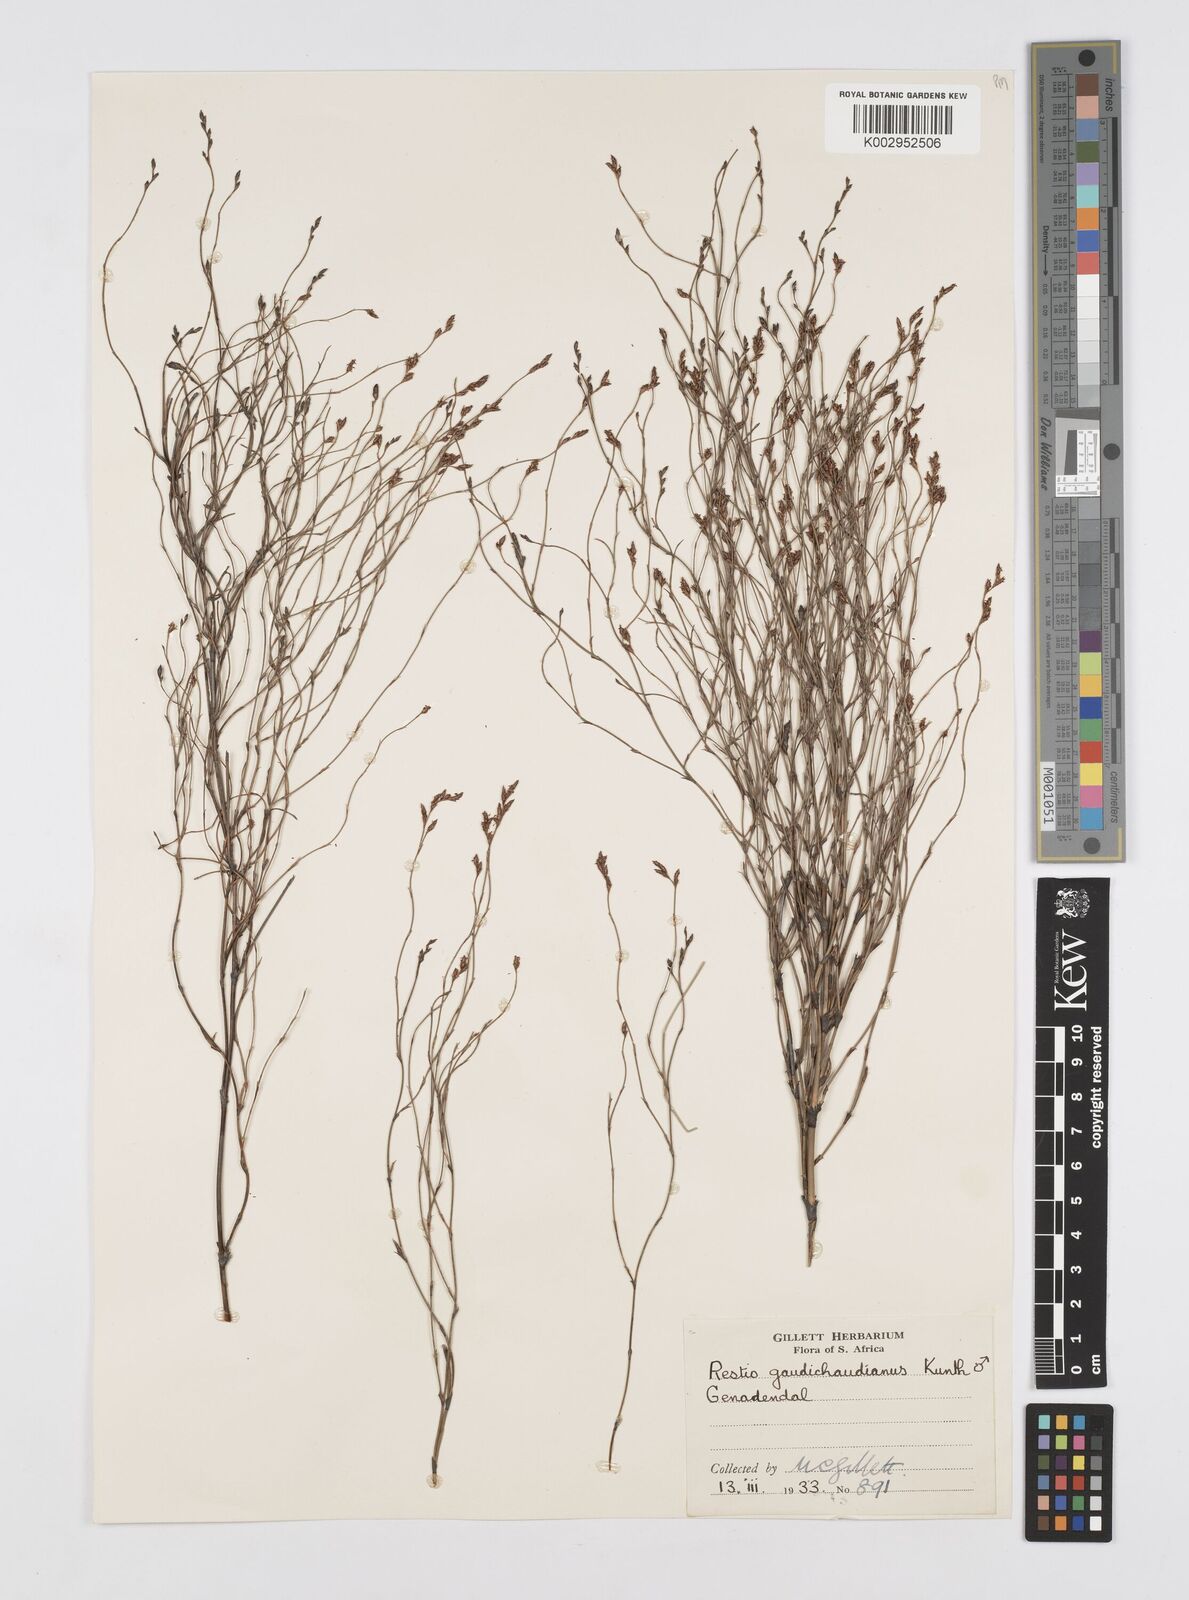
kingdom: Plantae
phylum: Tracheophyta
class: Liliopsida
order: Poales
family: Restionaceae
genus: Restio
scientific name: Restio gaudichaudianus
